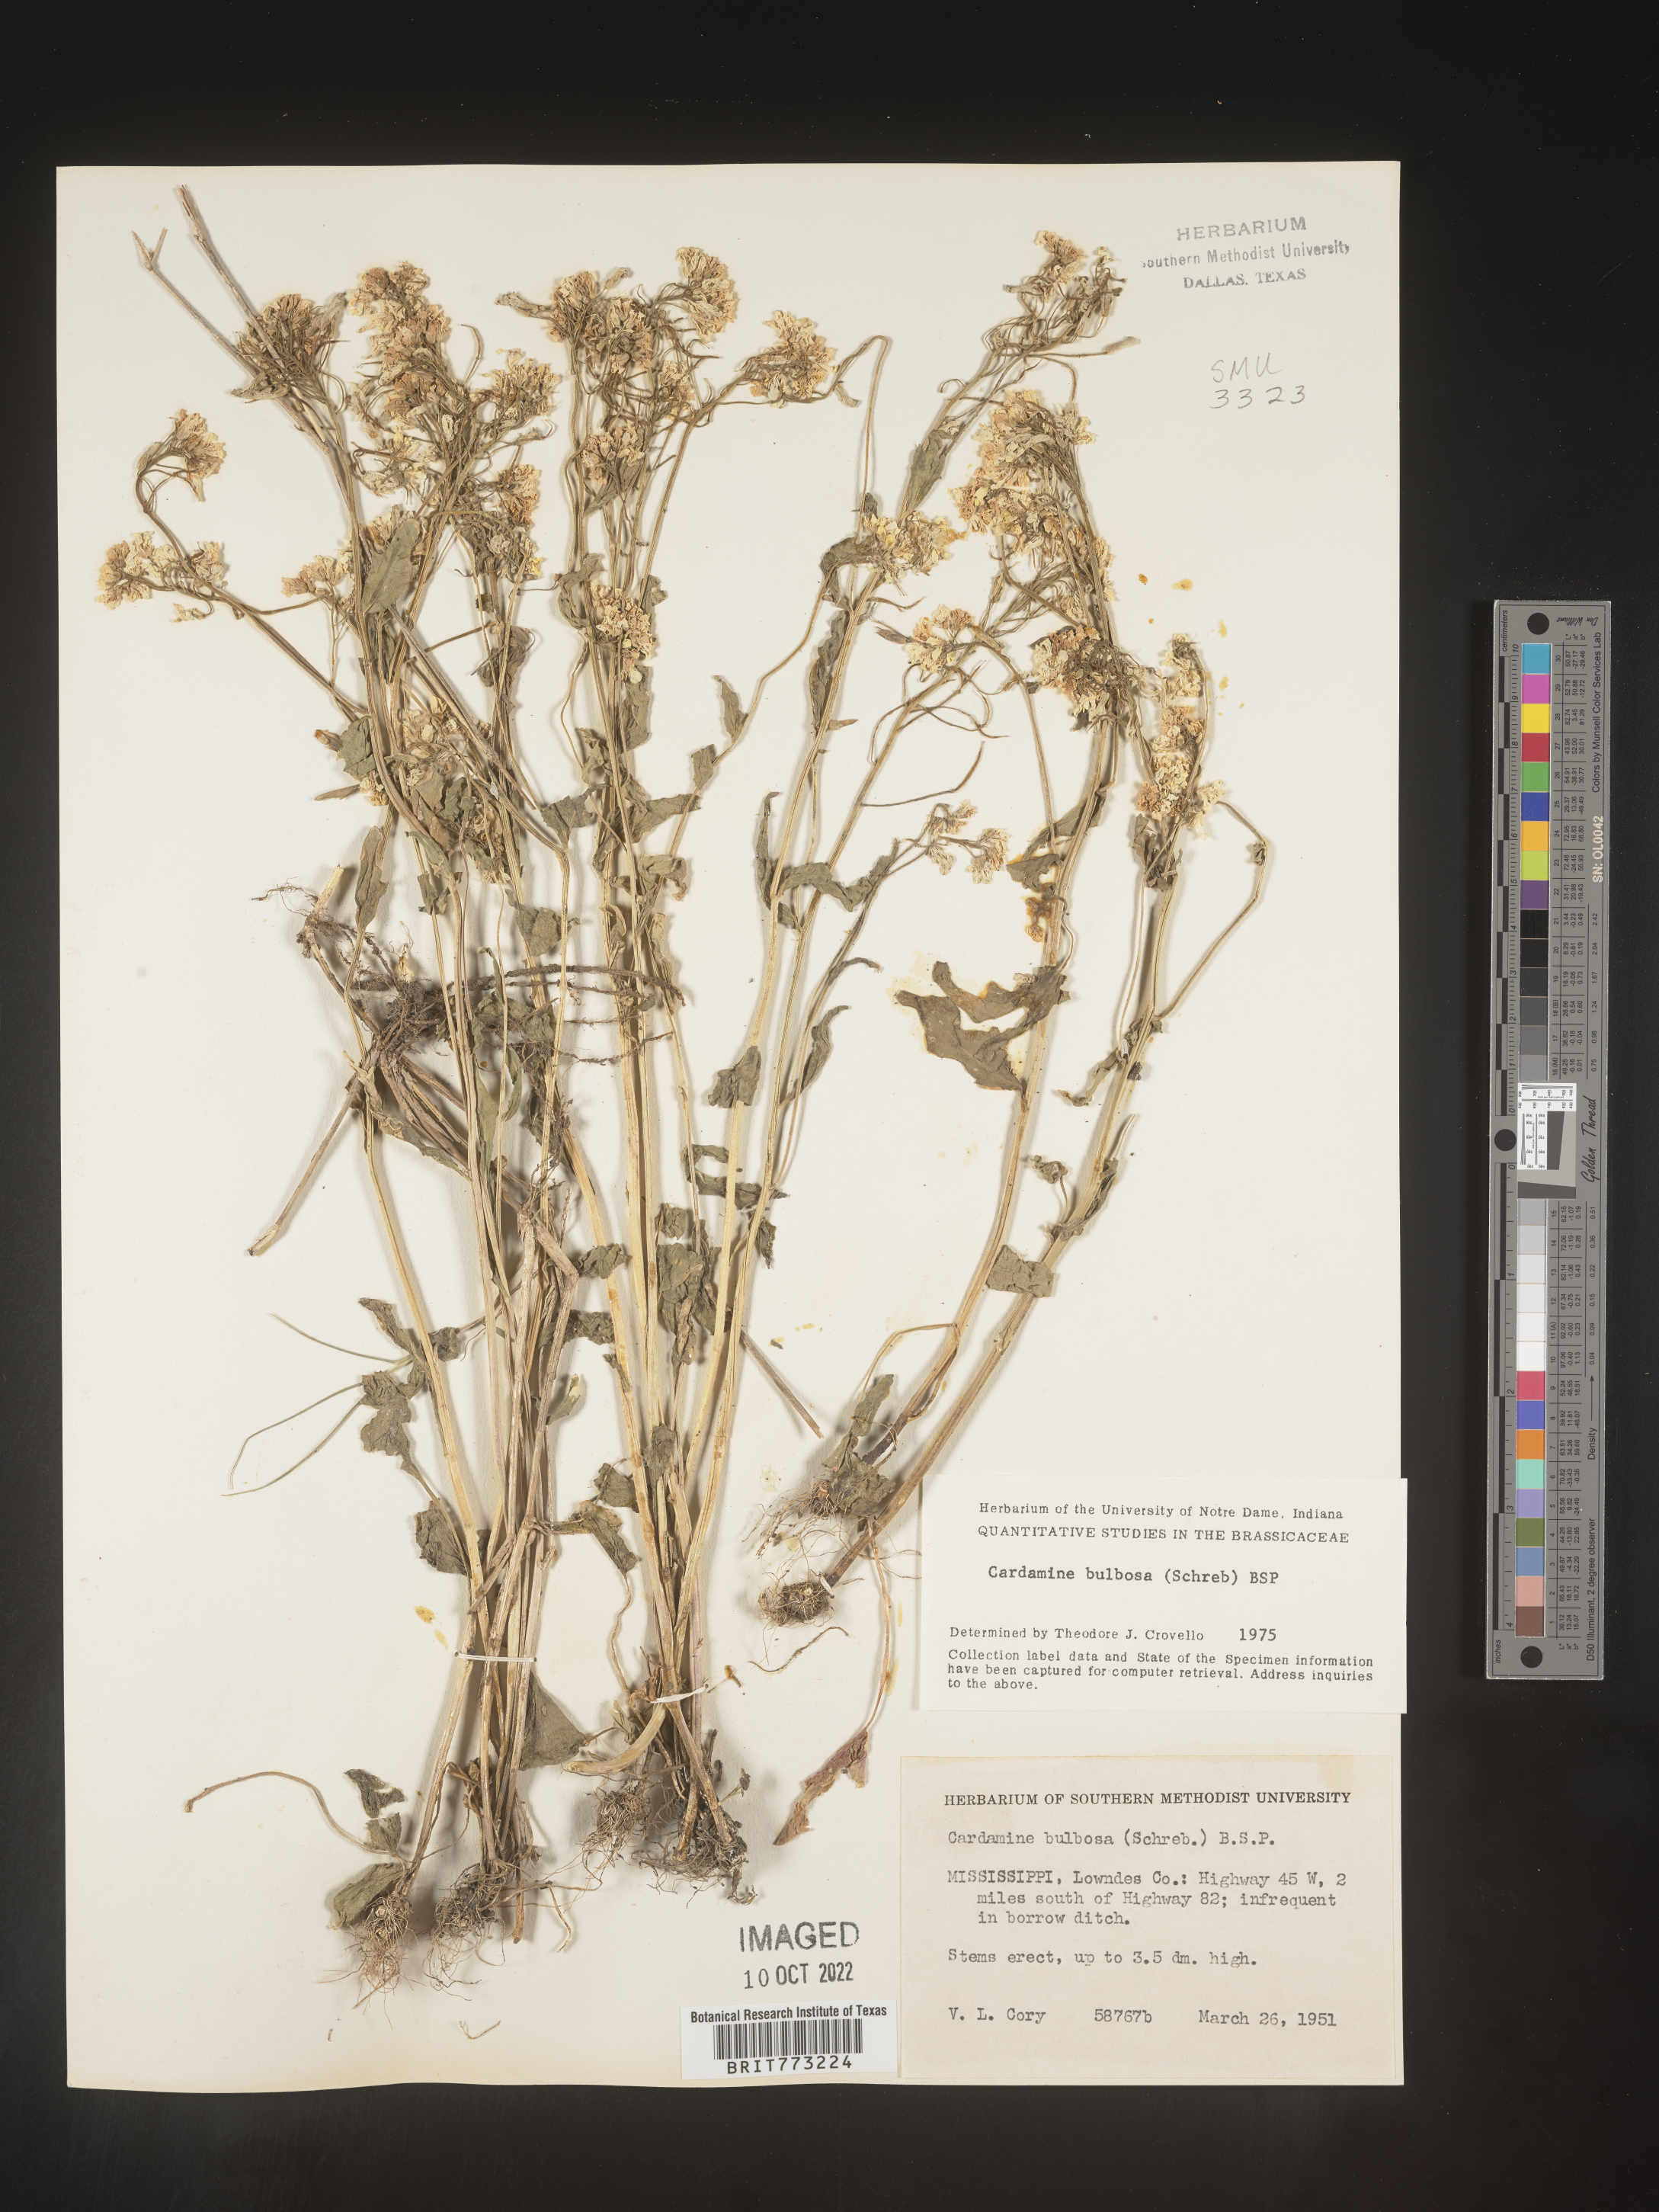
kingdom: Plantae
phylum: Tracheophyta
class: Magnoliopsida
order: Brassicales
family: Brassicaceae
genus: Cardamine
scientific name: Cardamine bulbosa
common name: Spring cress
